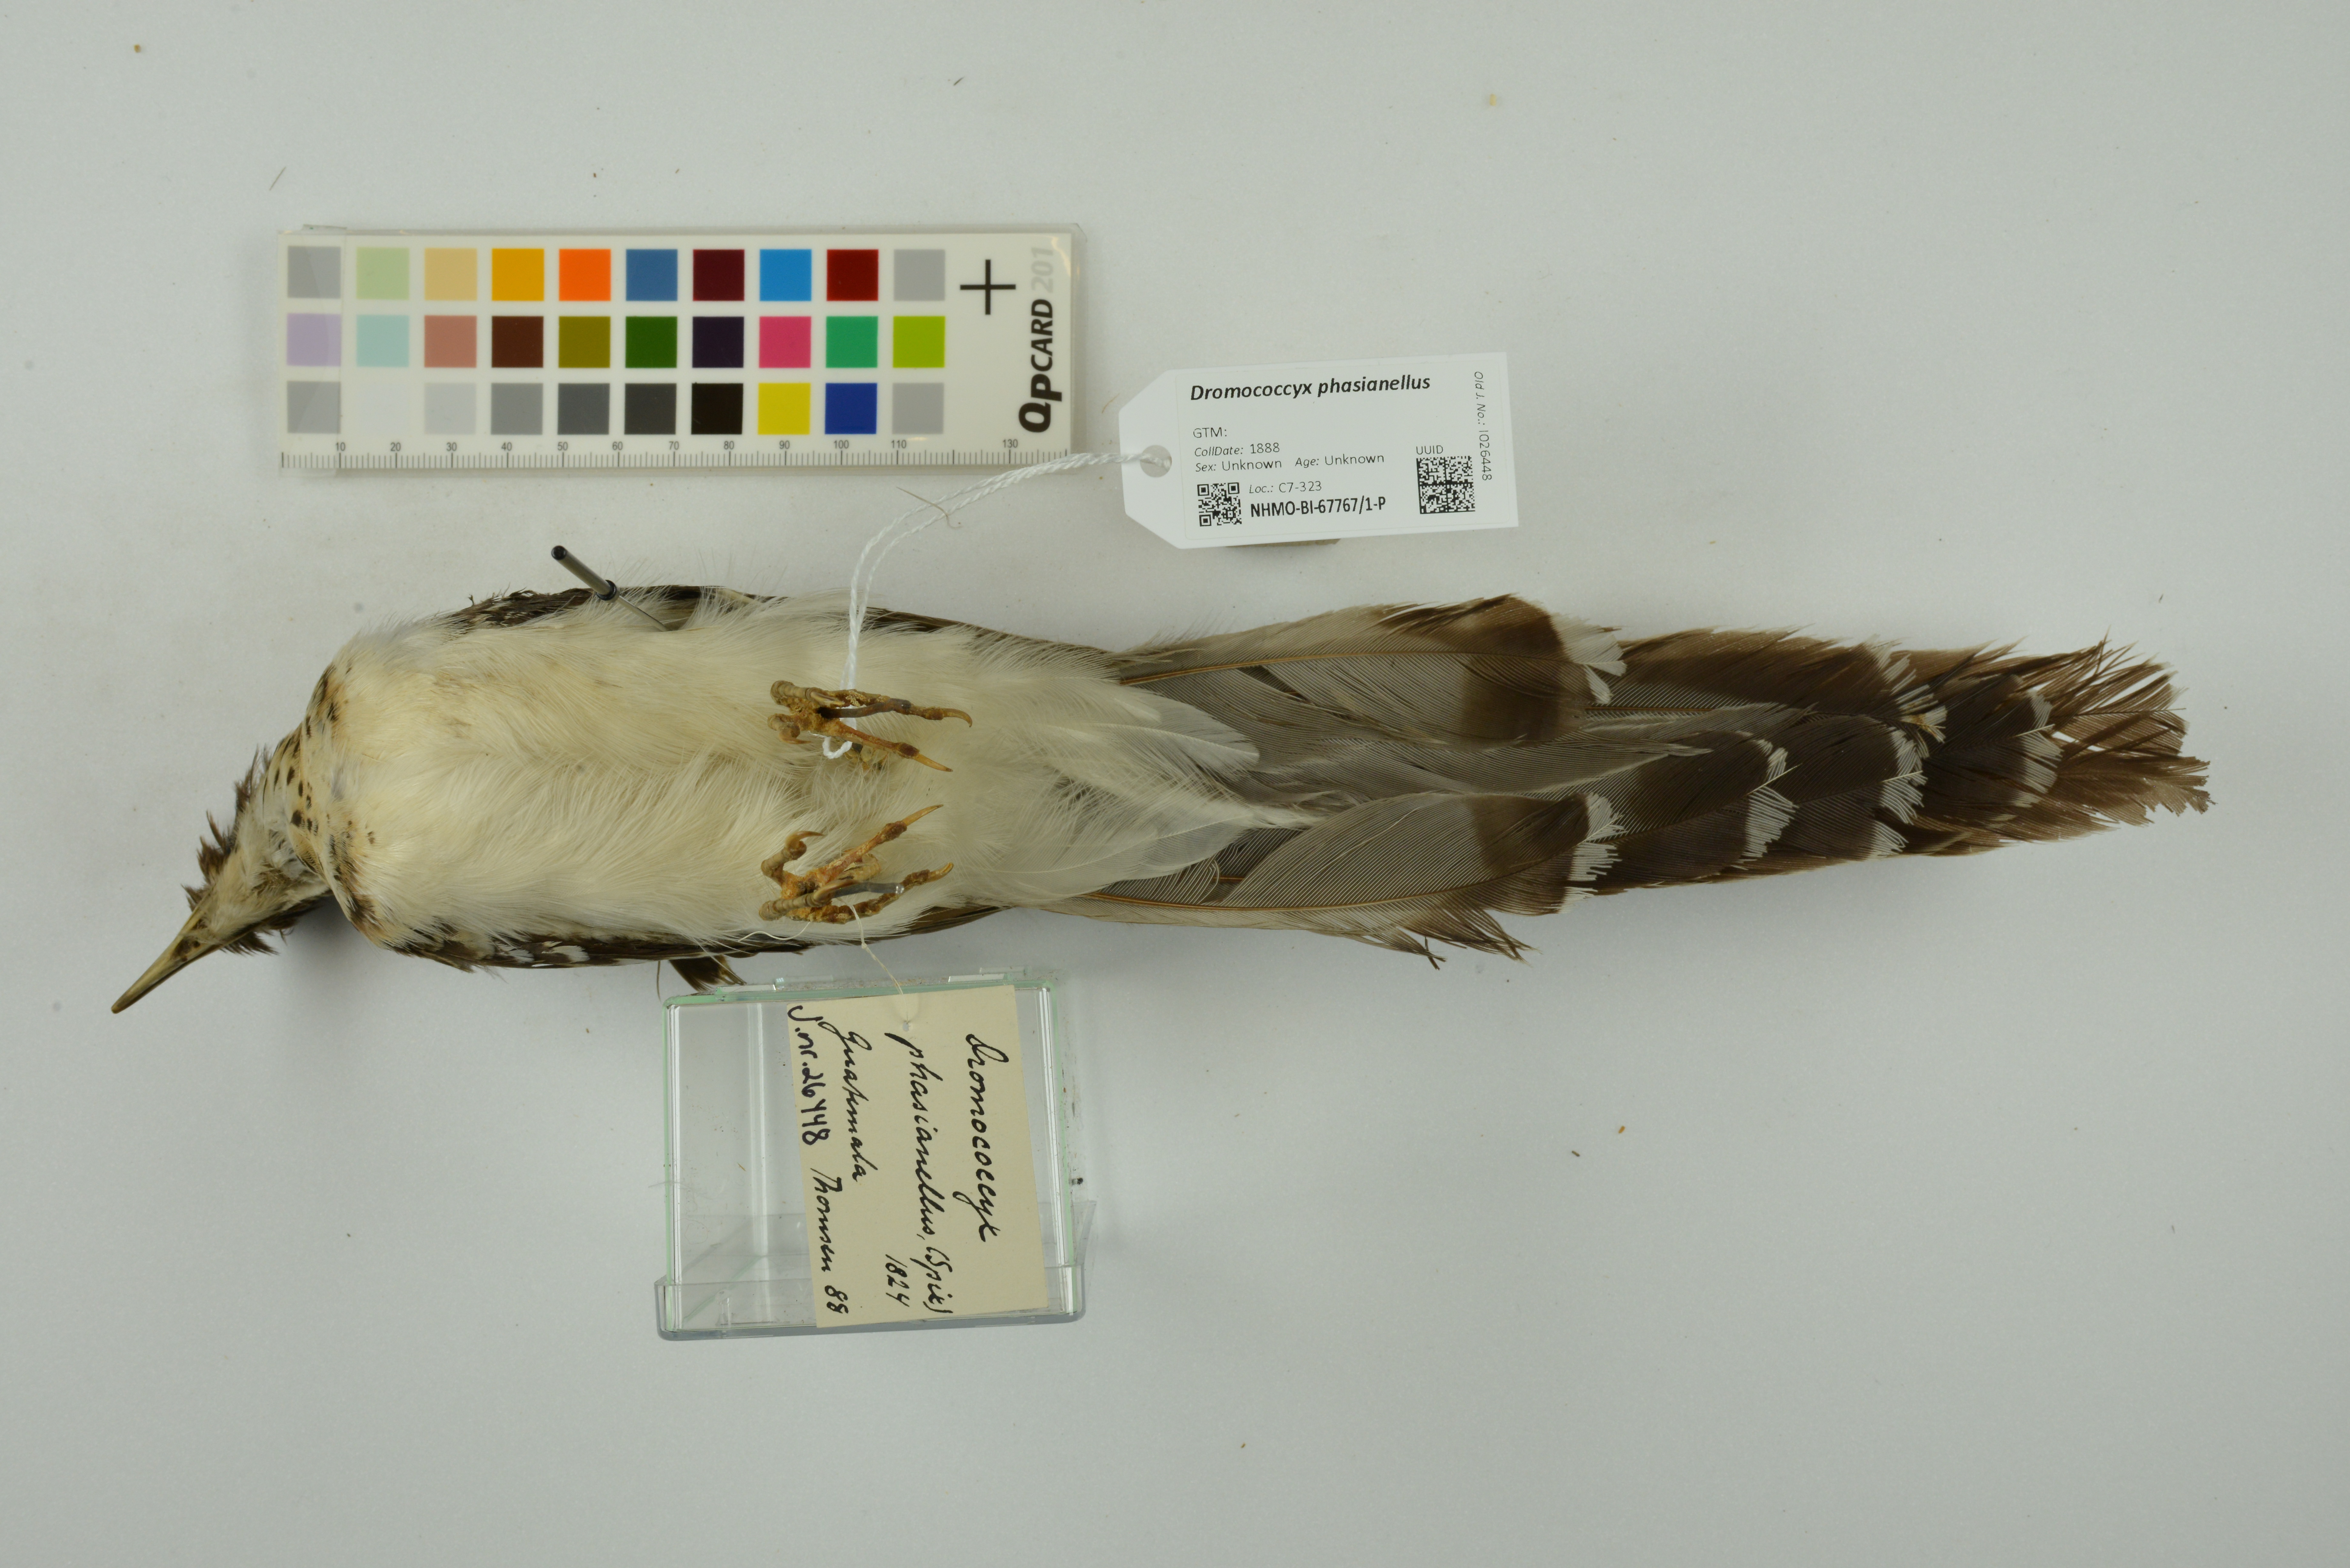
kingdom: Animalia
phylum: Chordata
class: Aves
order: Cuculiformes
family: Cuculidae
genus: Dromococcyx
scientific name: Dromococcyx phasianellus
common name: Pheasant cuckoo
